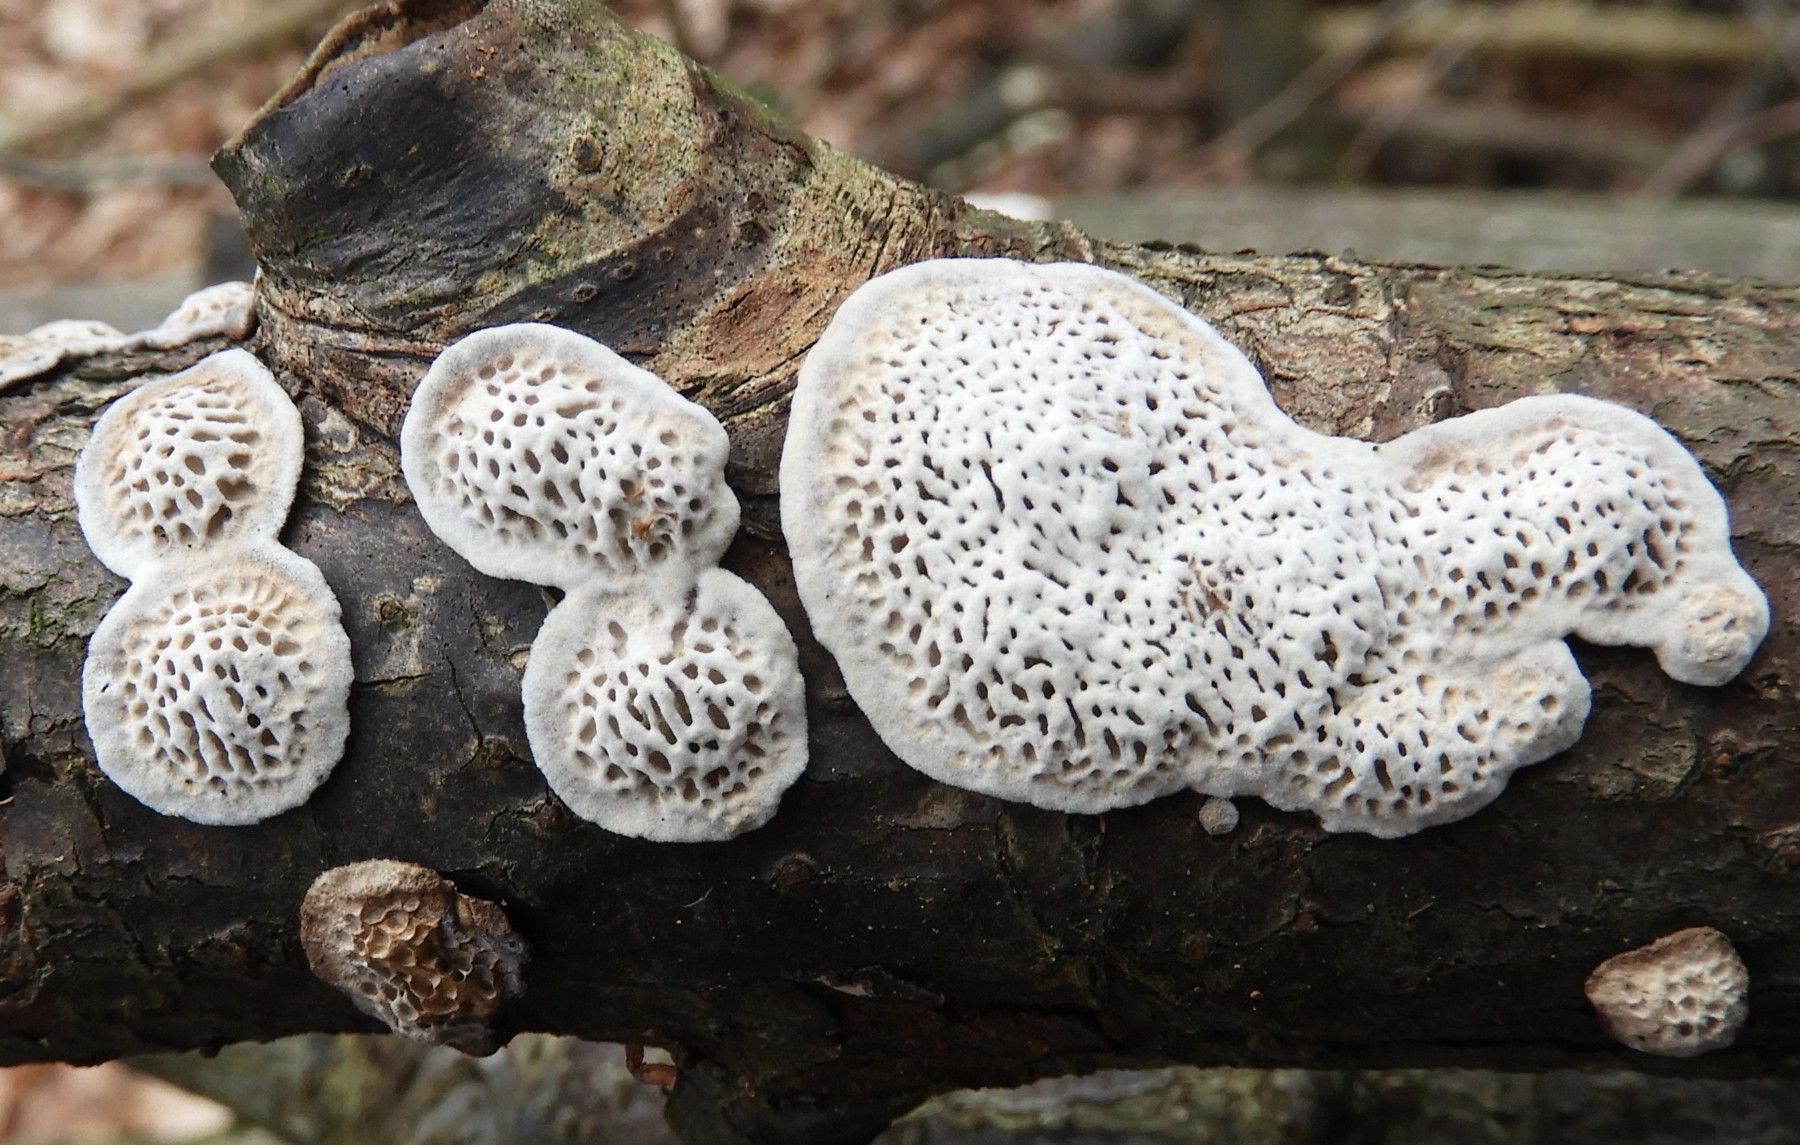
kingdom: Fungi
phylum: Basidiomycota
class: Agaricomycetes
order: Polyporales
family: Polyporaceae
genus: Podofomes
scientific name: Podofomes mollis
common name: blød begporesvamp
